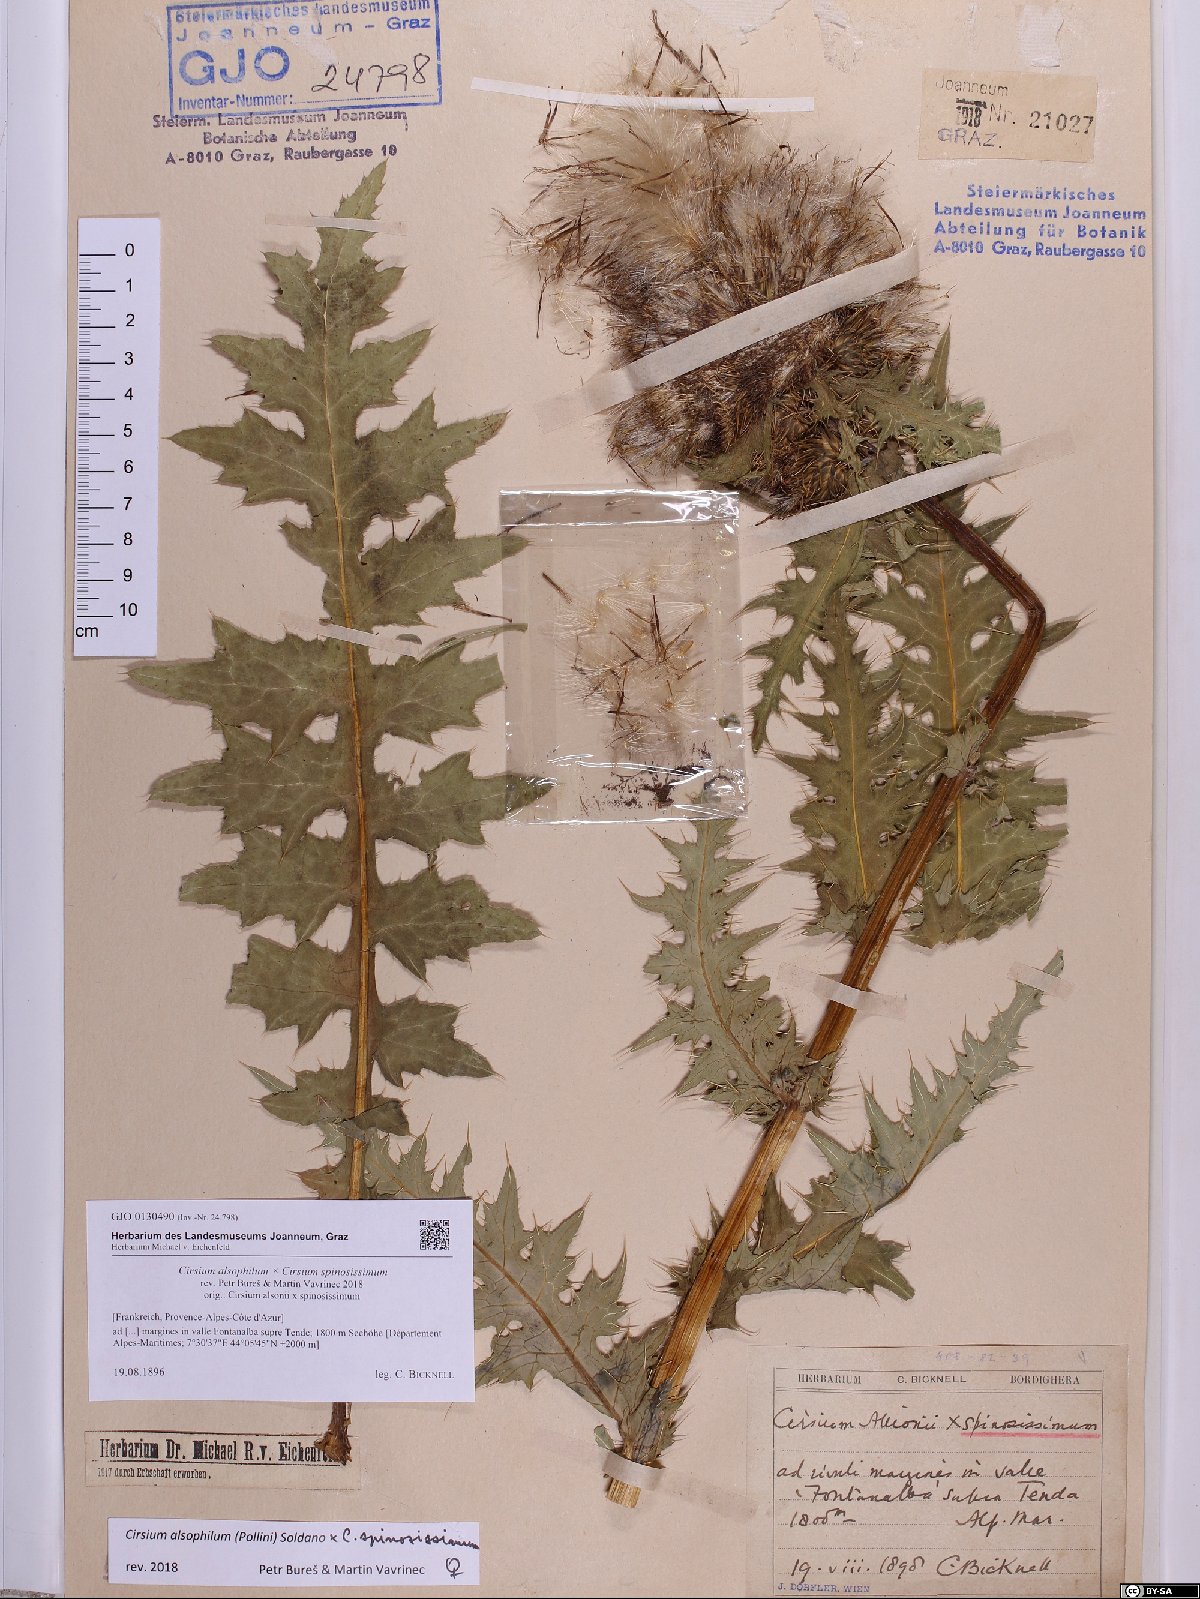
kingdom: Plantae
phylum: Tracheophyta
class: Magnoliopsida
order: Asterales
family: Asteraceae
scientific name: Asteraceae
